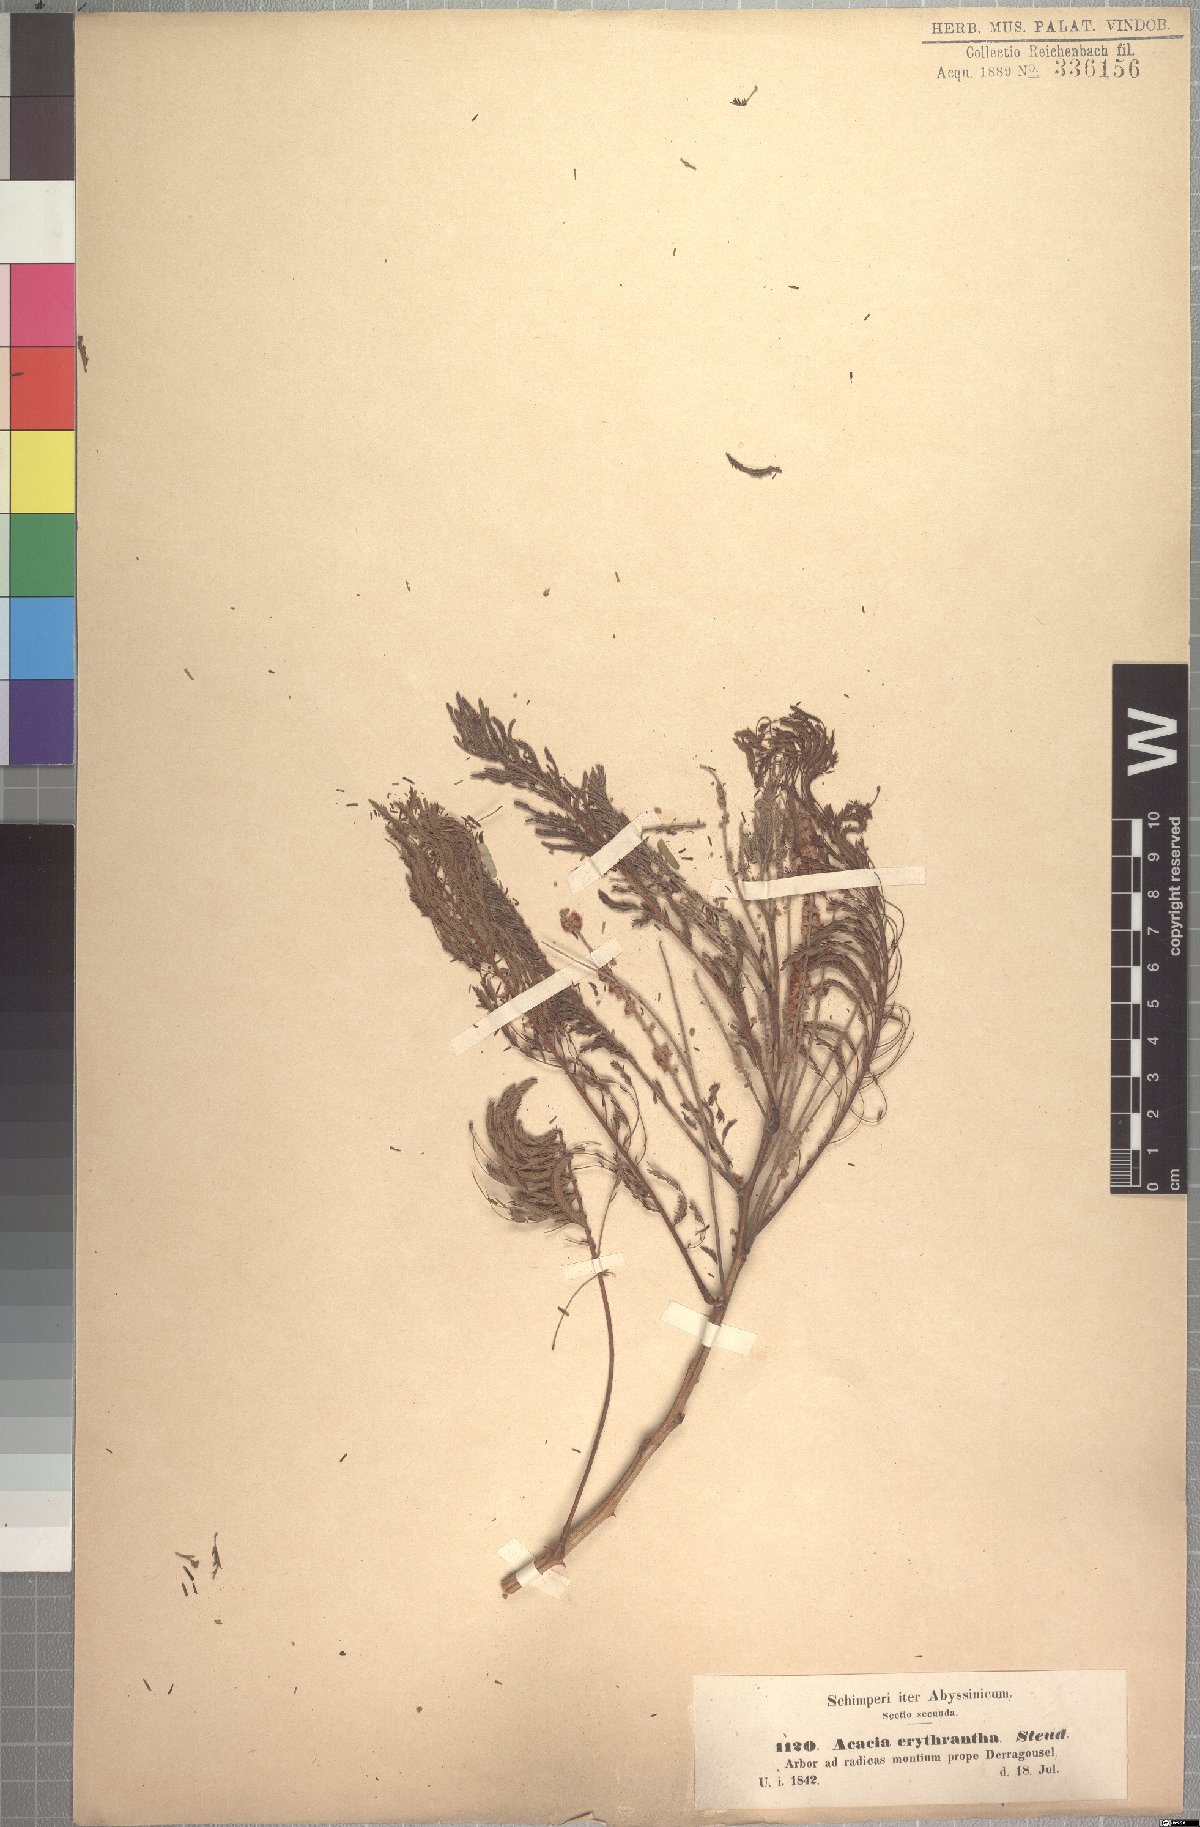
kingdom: Plantae
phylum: Tracheophyta
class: Magnoliopsida
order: Fabales
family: Fabaceae
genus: Senegalia
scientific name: Senegalia polyacantha
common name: Whitethorn
